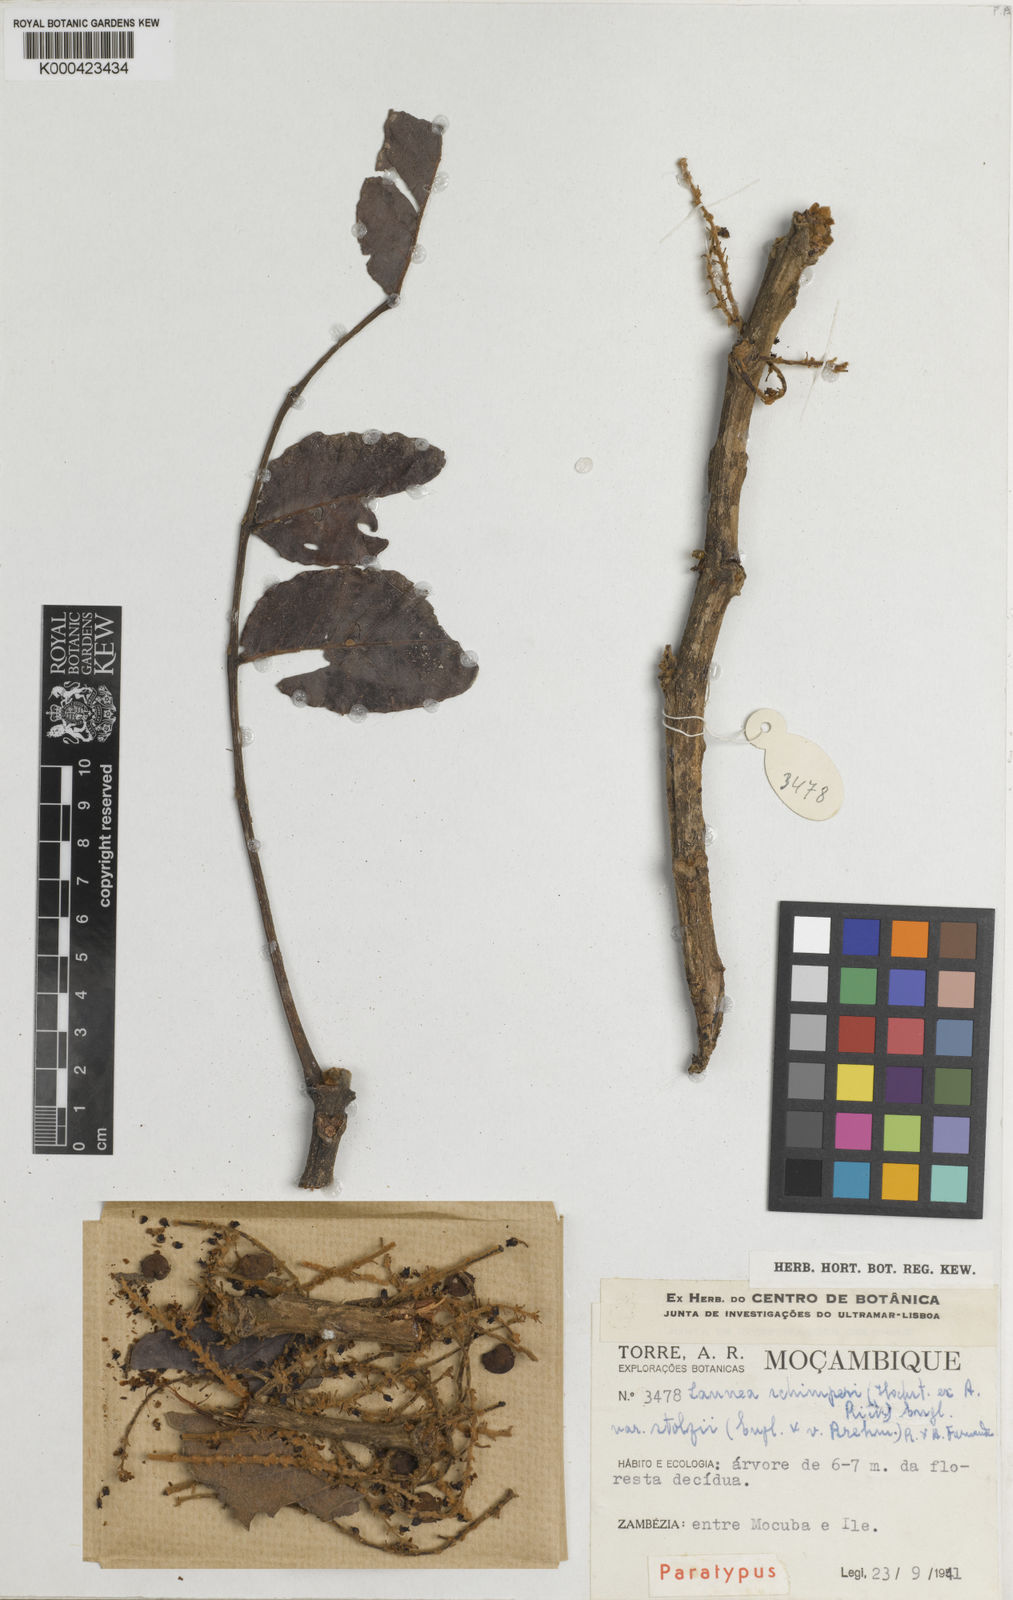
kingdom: Plantae
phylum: Tracheophyta
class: Magnoliopsida
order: Sapindales
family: Anacardiaceae
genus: Lannea
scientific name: Lannea schimperi
